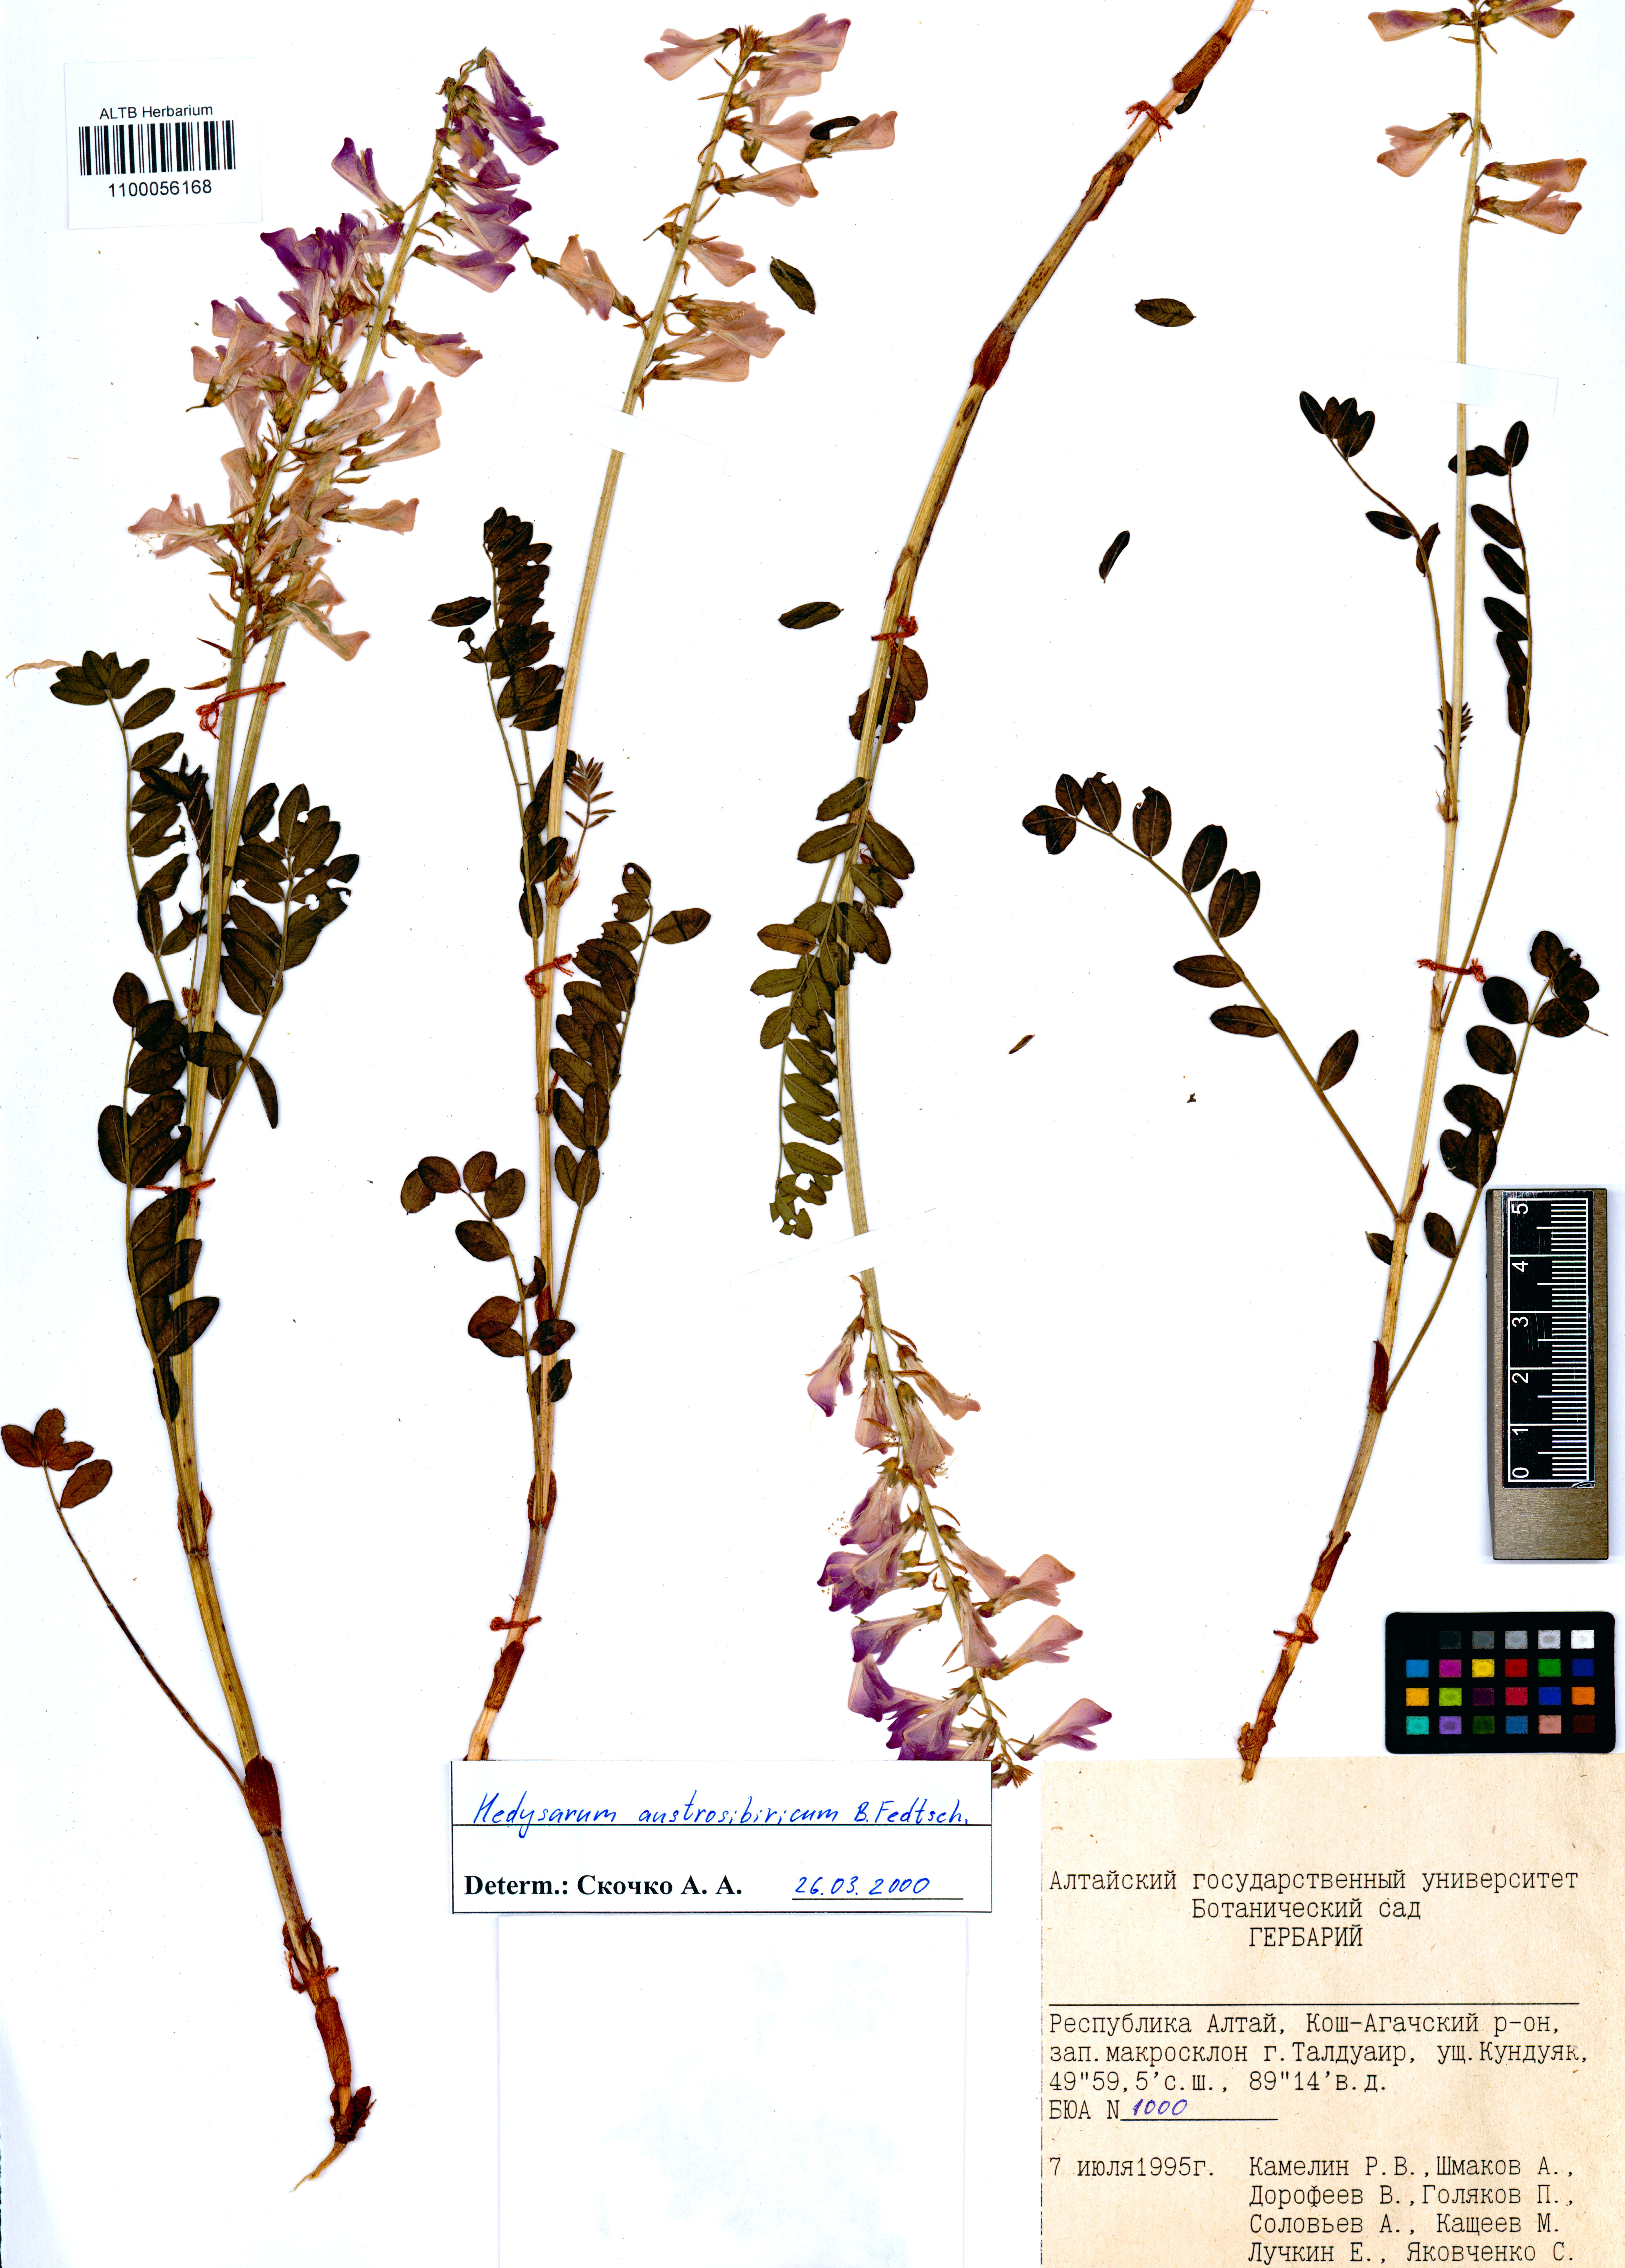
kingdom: Plantae
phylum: Tracheophyta
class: Magnoliopsida
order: Fabales
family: Fabaceae
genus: Hedysarum
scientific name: Hedysarum neglectum
